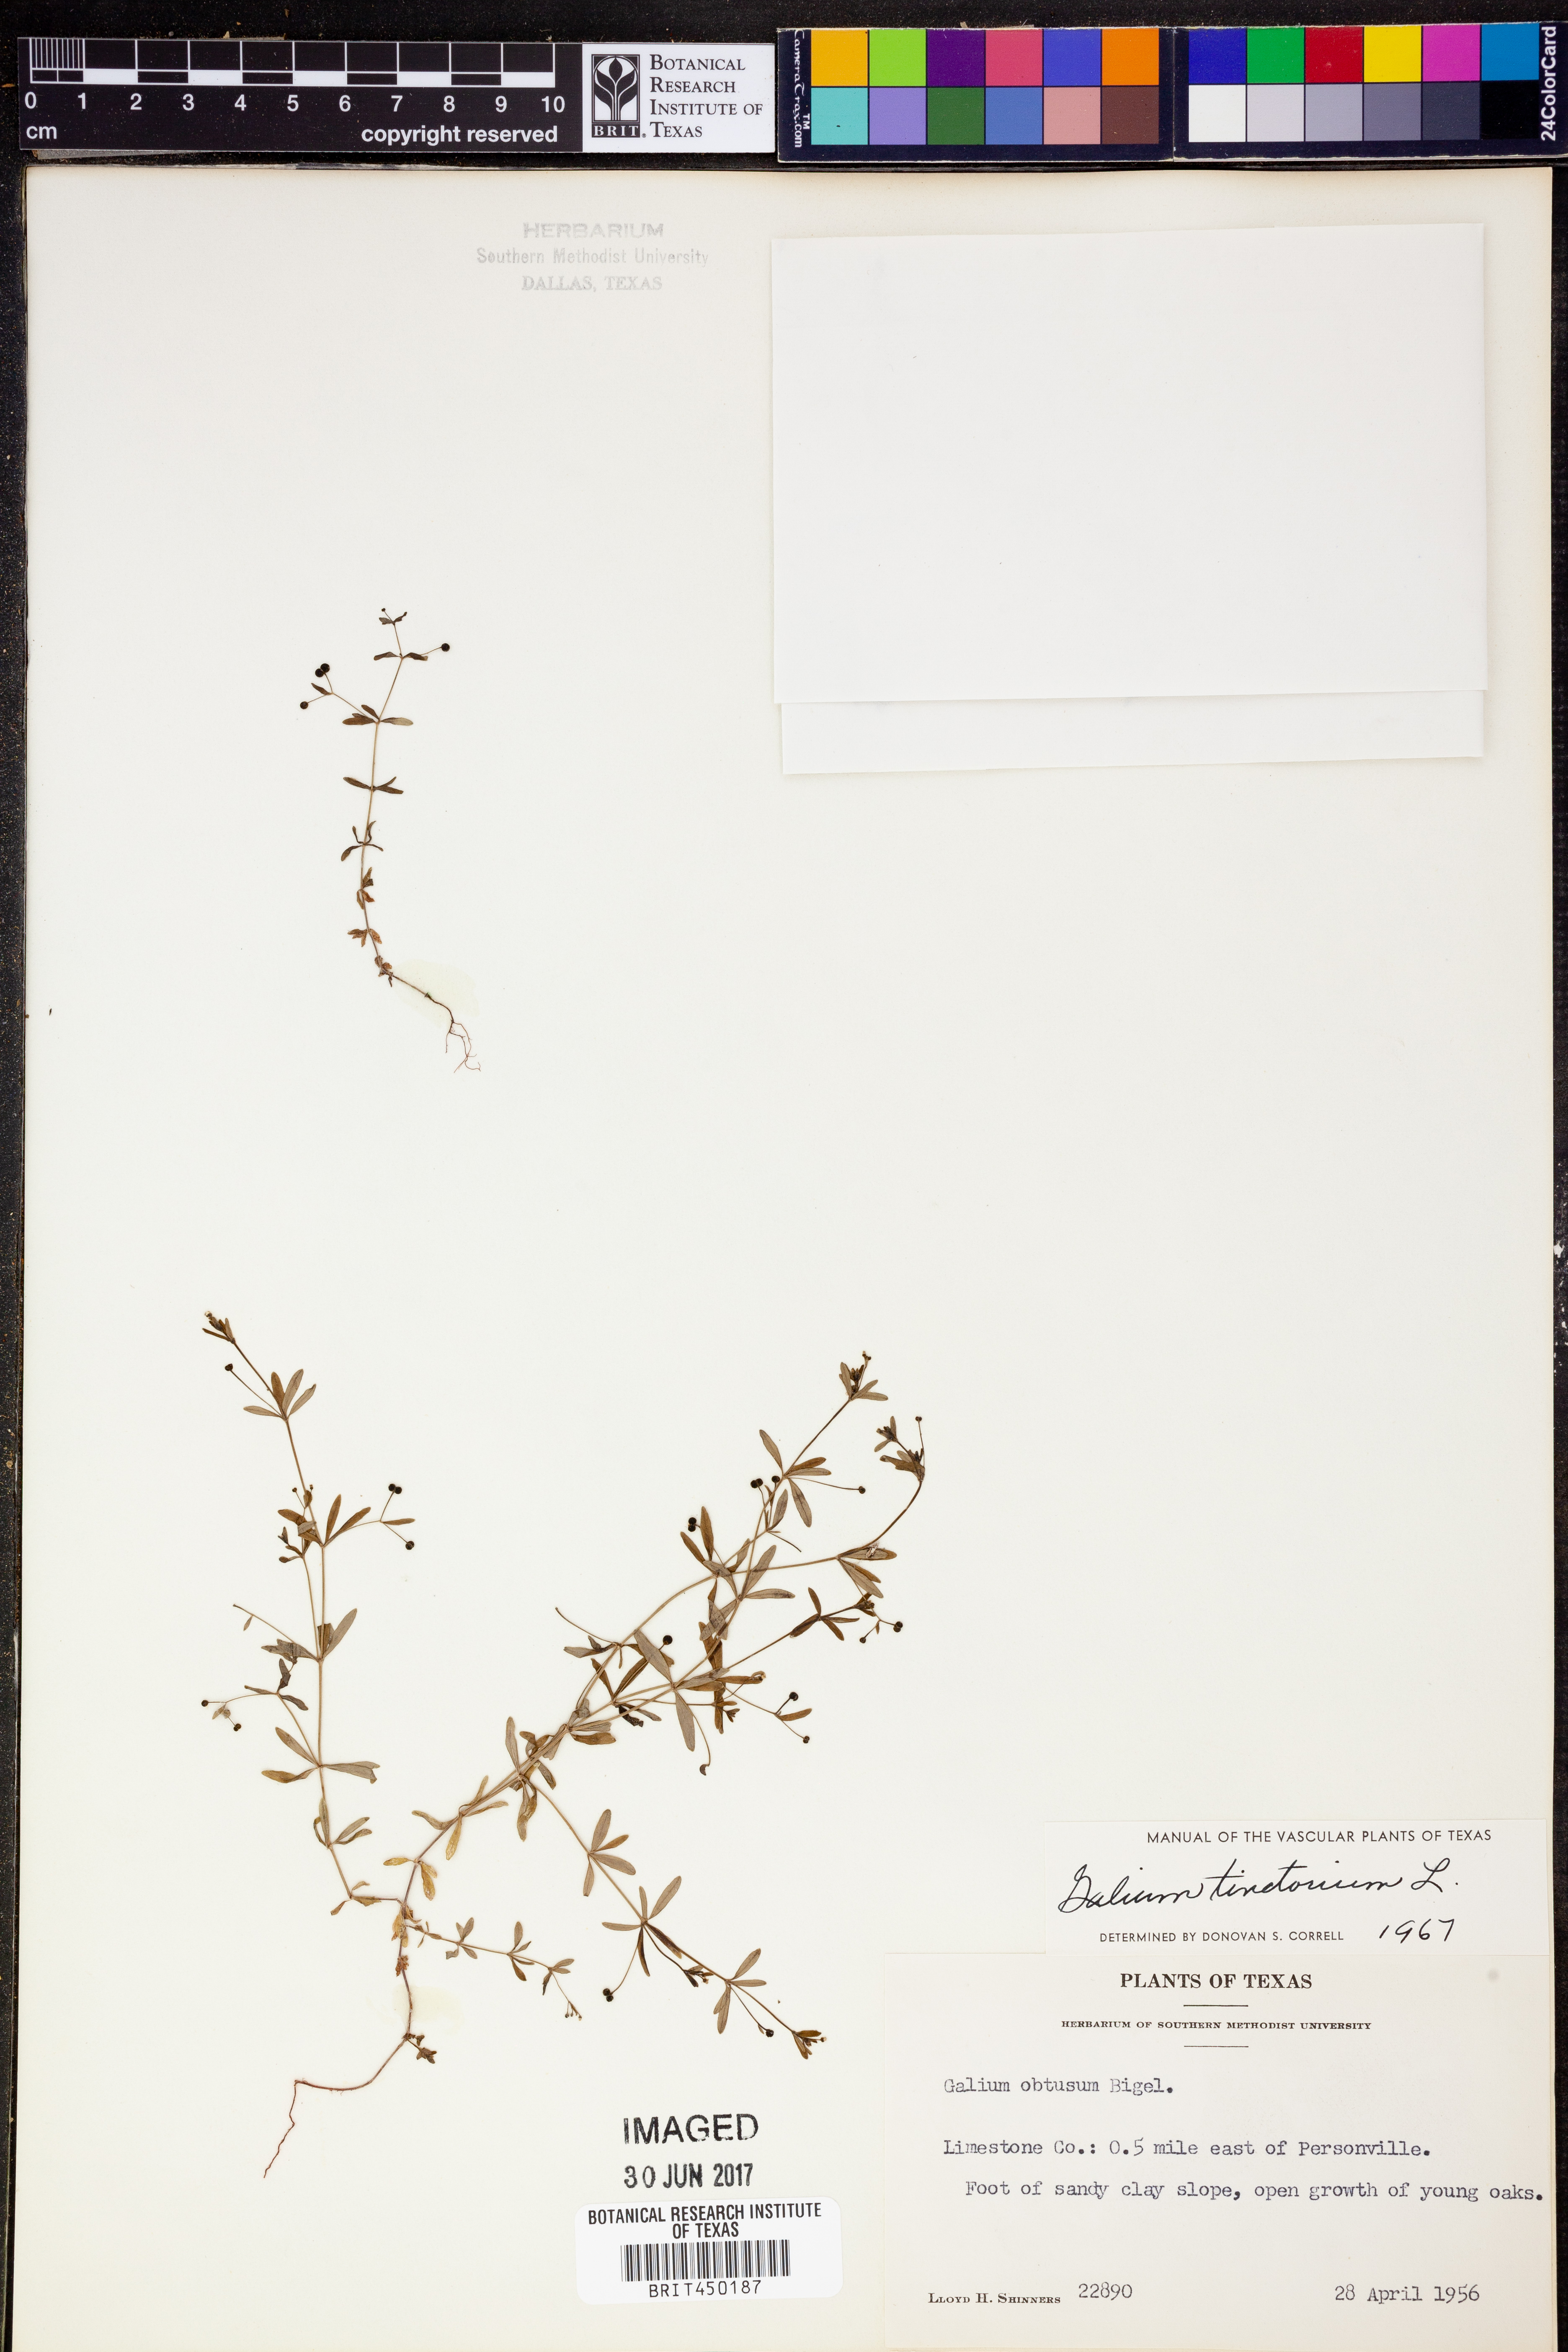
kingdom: Plantae
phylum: Tracheophyta
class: Magnoliopsida
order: Gentianales
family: Rubiaceae
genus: Asperula
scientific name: Asperula tinctoria
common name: Dyer's woodruff
